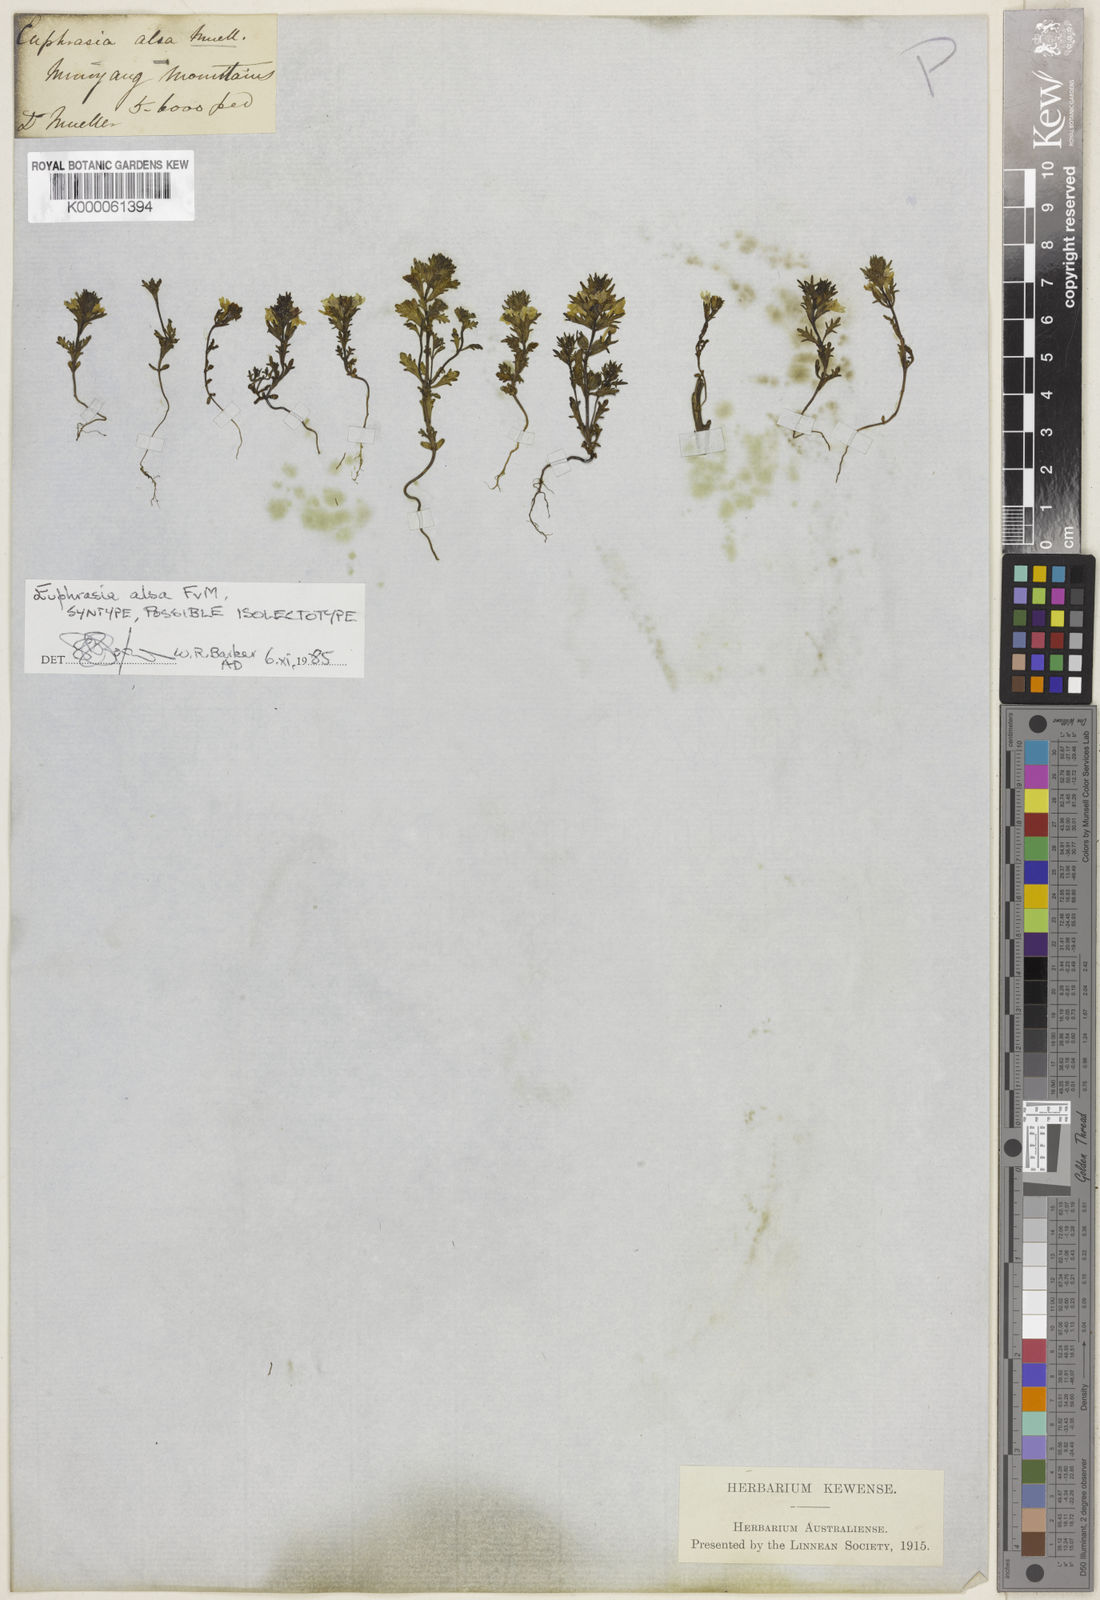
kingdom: Plantae
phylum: Tracheophyta
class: Magnoliopsida
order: Lamiales
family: Orobanchaceae
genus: Euphrasia
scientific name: Euphrasia alsa
